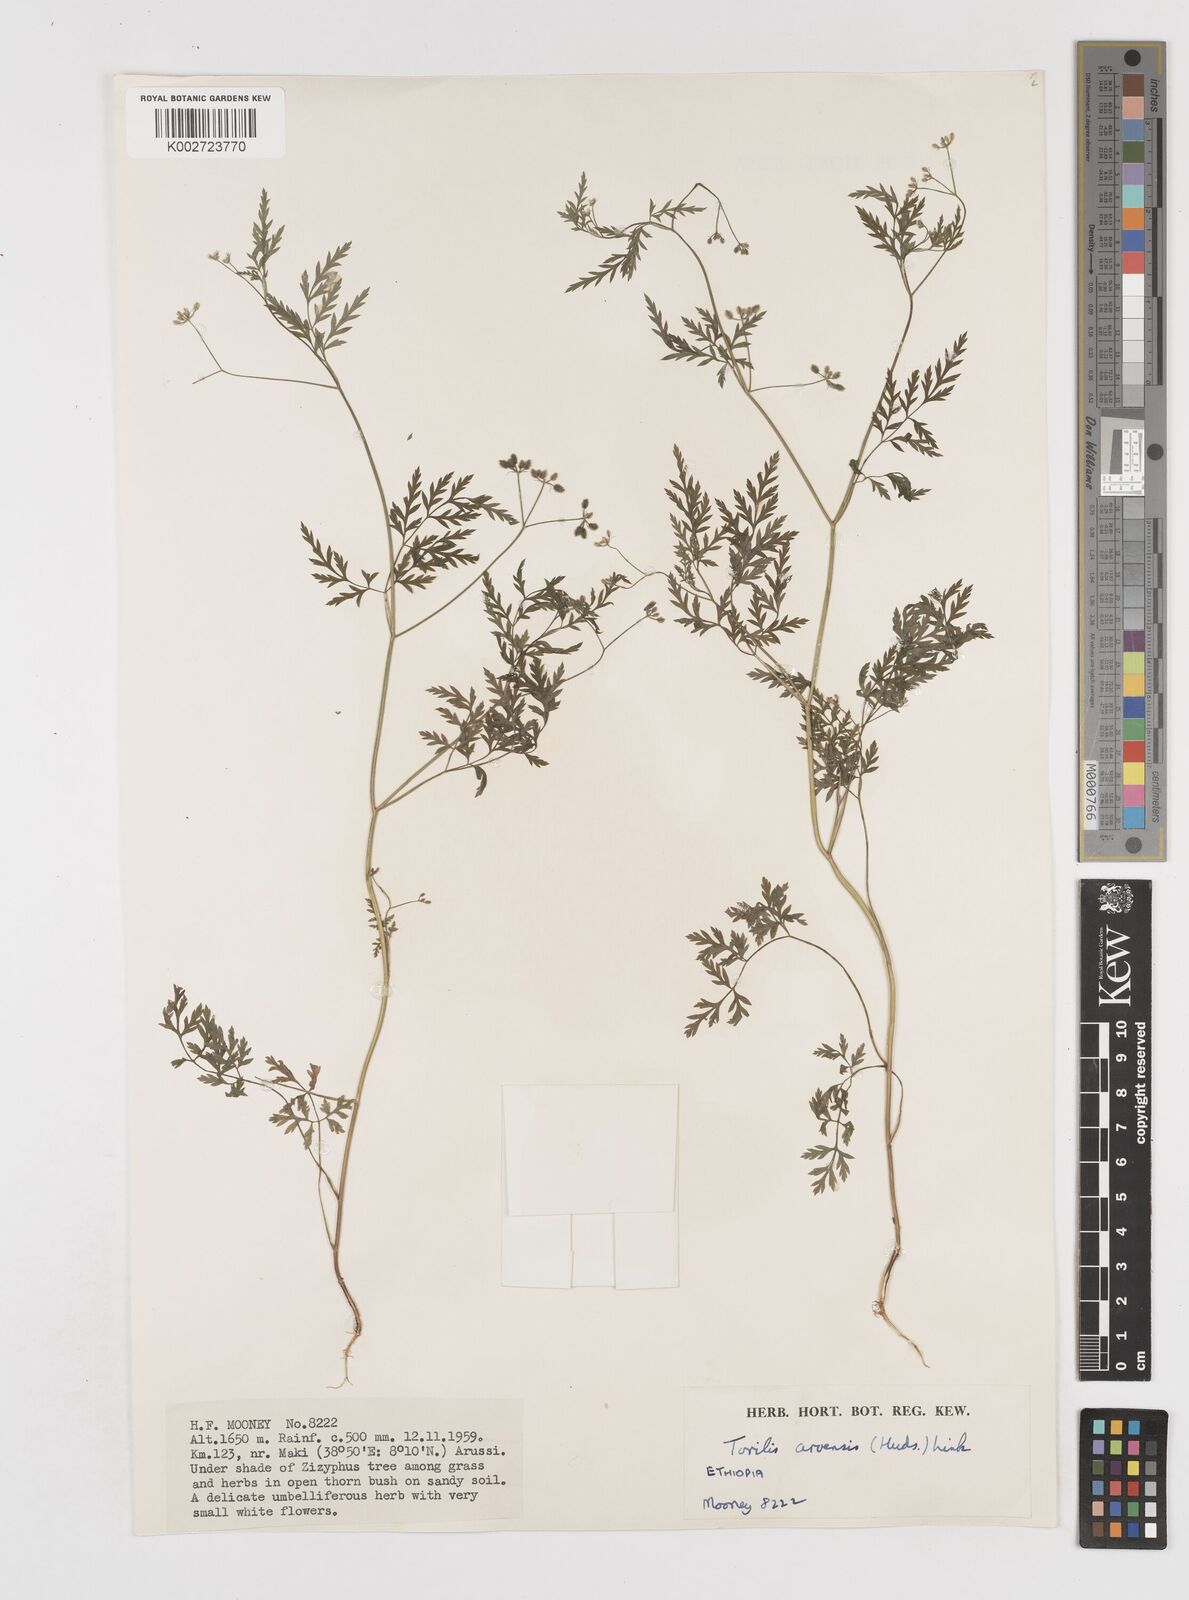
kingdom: Plantae
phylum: Tracheophyta
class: Magnoliopsida
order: Apiales
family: Apiaceae
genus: Torilis
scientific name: Torilis arvensis
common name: Spreading hedge-parsley
